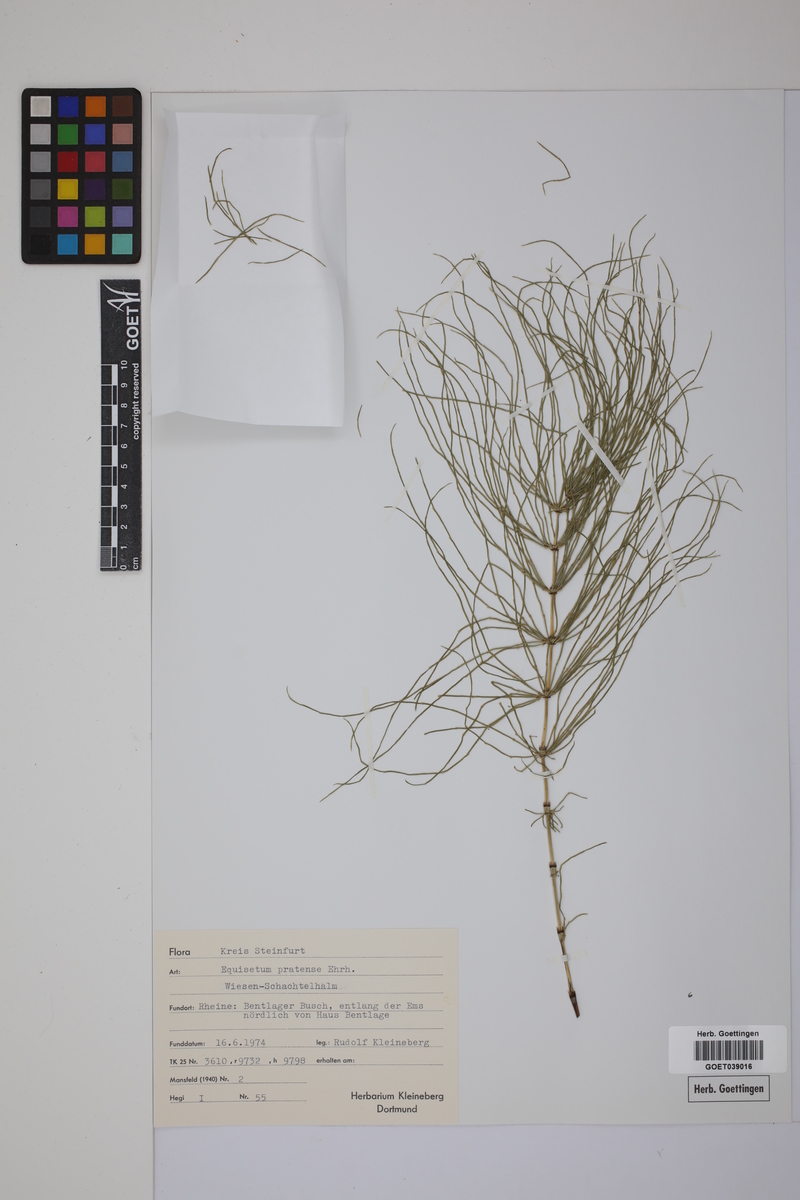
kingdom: Plantae
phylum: Tracheophyta
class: Polypodiopsida
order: Equisetales
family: Equisetaceae
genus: Equisetum
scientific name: Equisetum pratense
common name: Meadow horsetail
